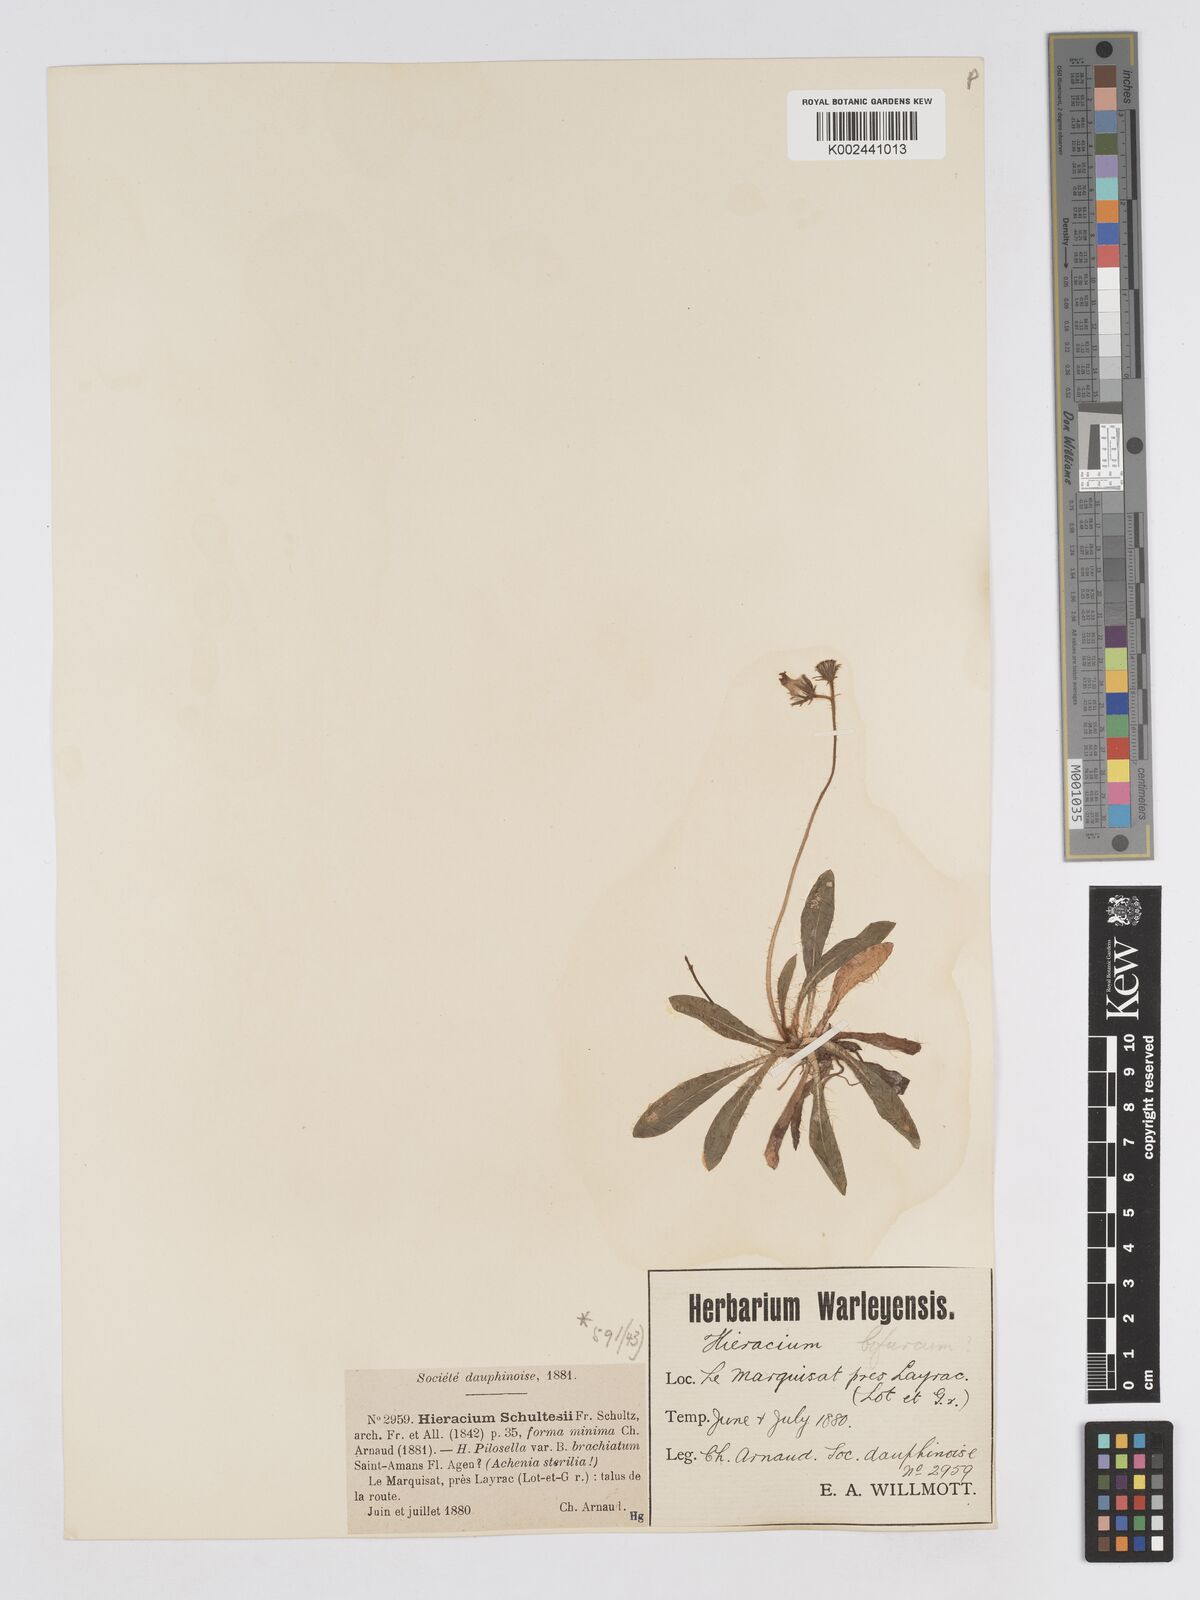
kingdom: Plantae
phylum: Tracheophyta
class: Magnoliopsida
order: Asterales
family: Asteraceae
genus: Pilosella
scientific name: Pilosella schultesii
